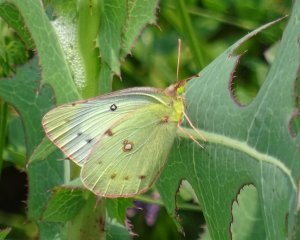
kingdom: Animalia
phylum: Arthropoda
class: Insecta
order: Lepidoptera
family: Pieridae
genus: Colias
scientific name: Colias philodice
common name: Clouded Sulphur
